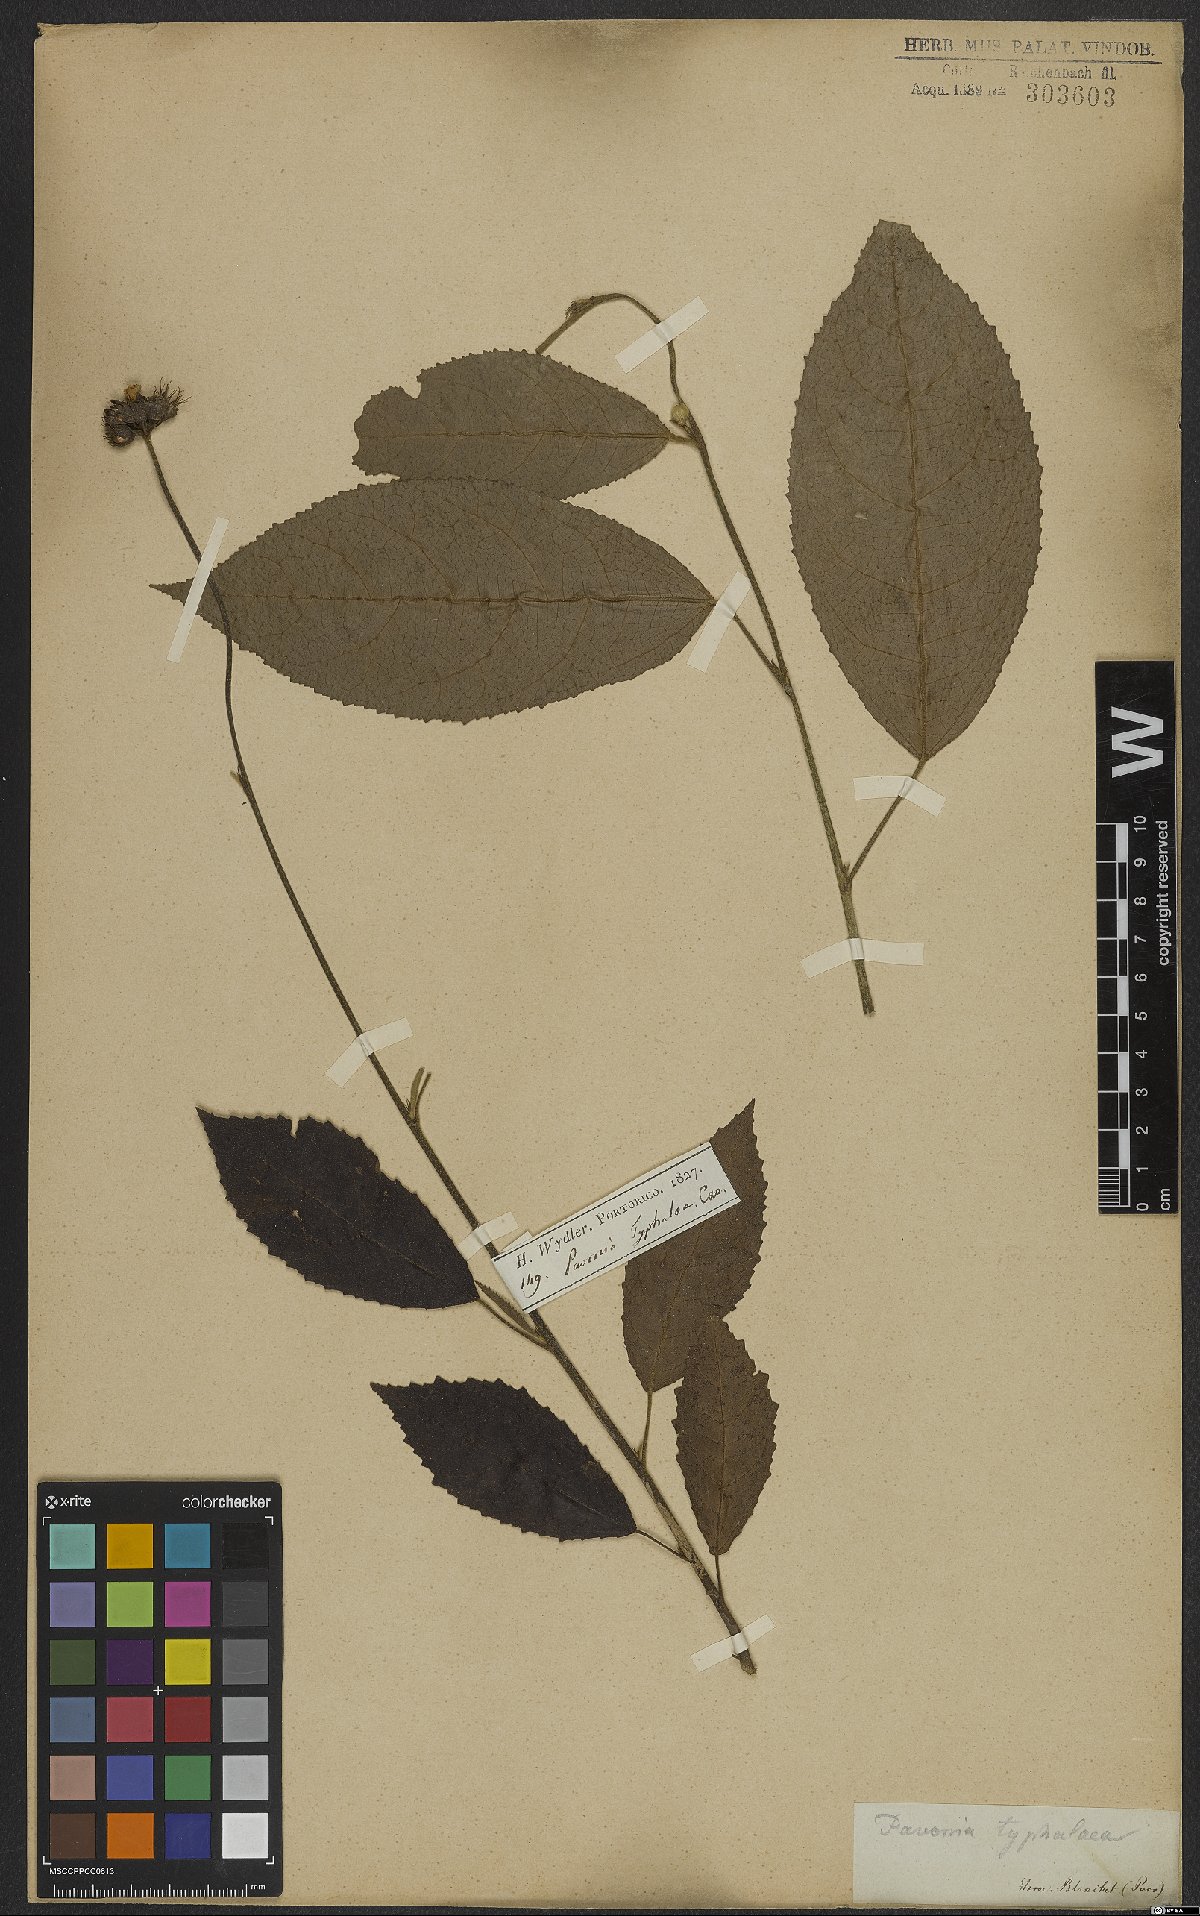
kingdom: Plantae
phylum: Tracheophyta
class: Magnoliopsida
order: Malvales
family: Malvaceae
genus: Pavonia
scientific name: Pavonia fruticosa
